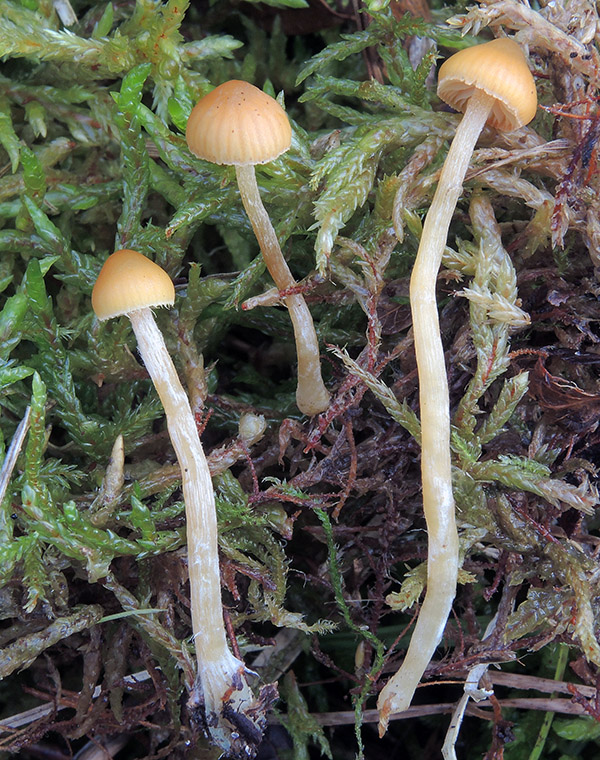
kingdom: Fungi
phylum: Basidiomycota
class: Agaricomycetes
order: Agaricales
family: Hymenogastraceae
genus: Galerina
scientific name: Galerina pumila
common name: honninggul hjelmhat
